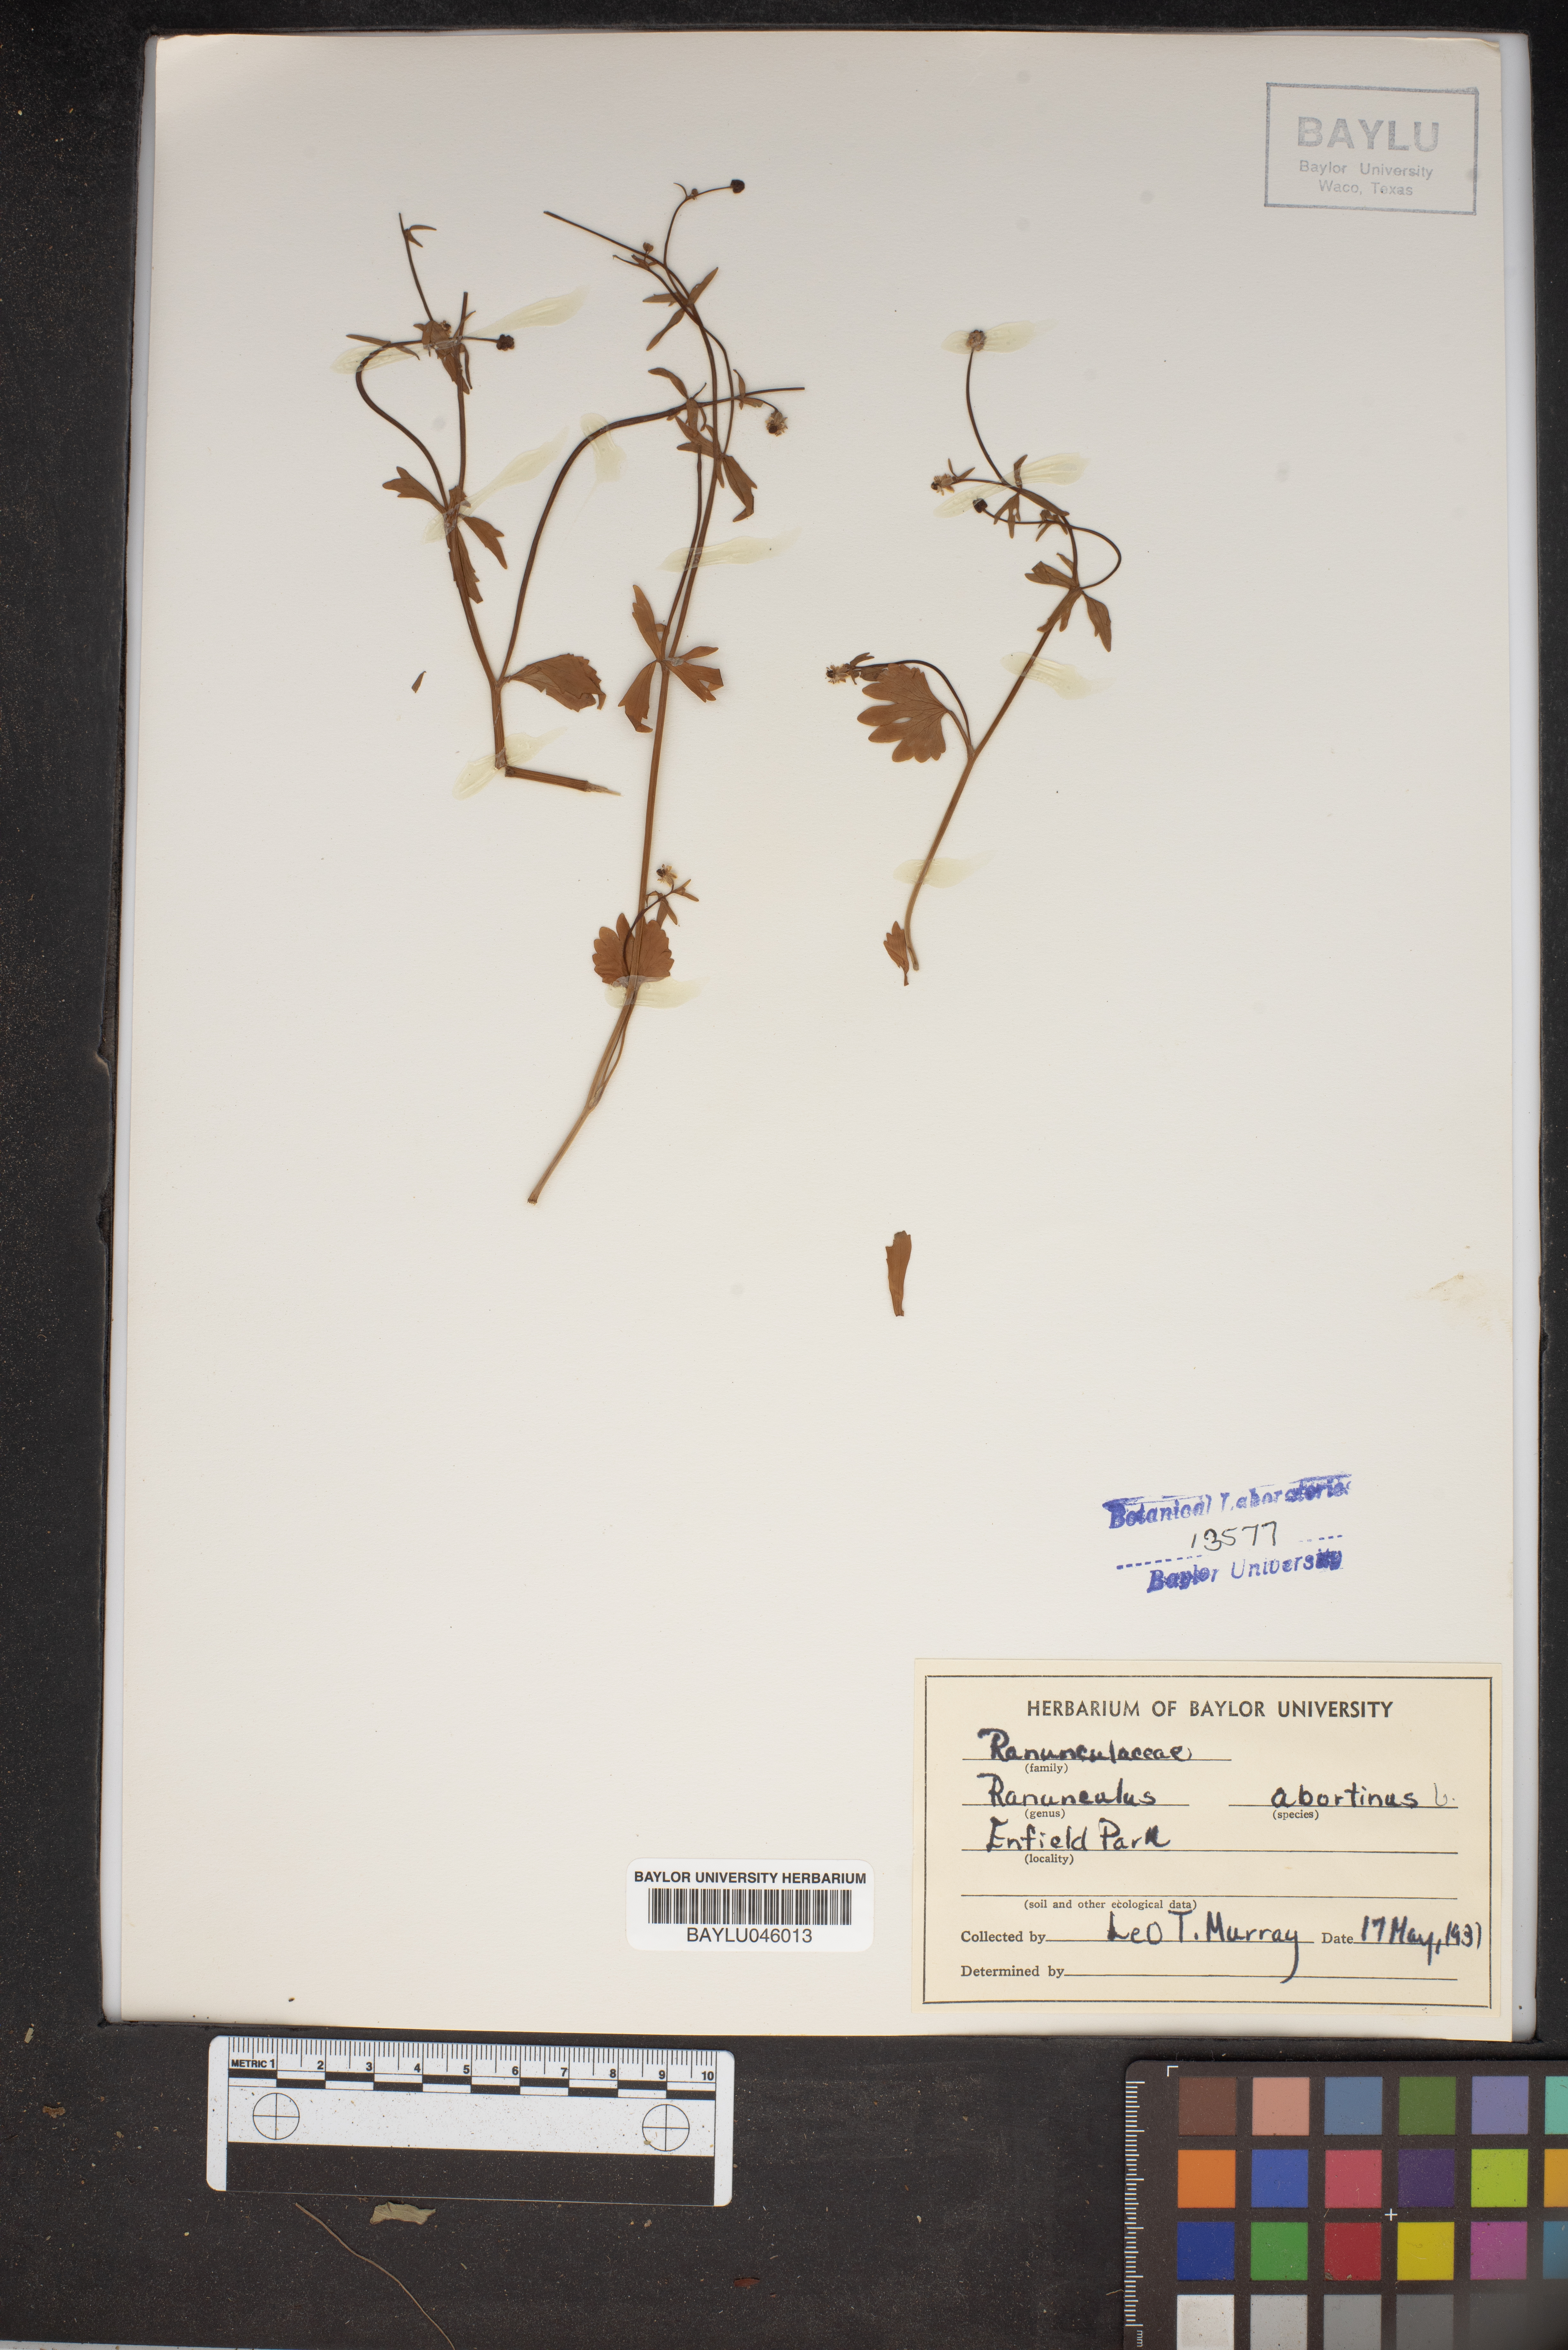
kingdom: Plantae
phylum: Tracheophyta
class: Magnoliopsida
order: Ranunculales
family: Ranunculaceae
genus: Ranunculus
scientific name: Ranunculus abortivus
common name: Early wood buttercup
